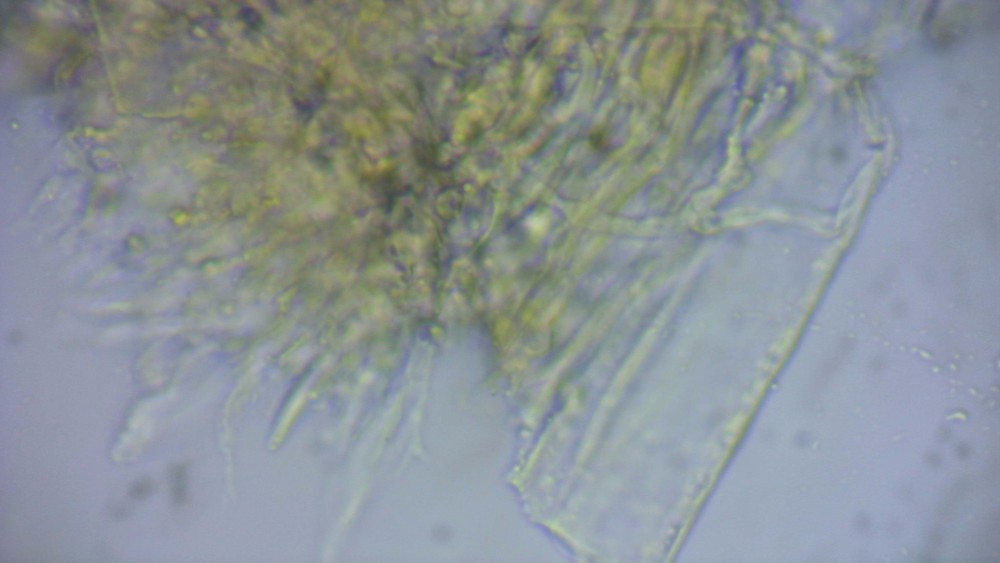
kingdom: Fungi
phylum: Ascomycota
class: Dothideomycetes
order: Mycosphaerellales
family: Mycosphaerellaceae
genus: Septoria
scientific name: Septoria
